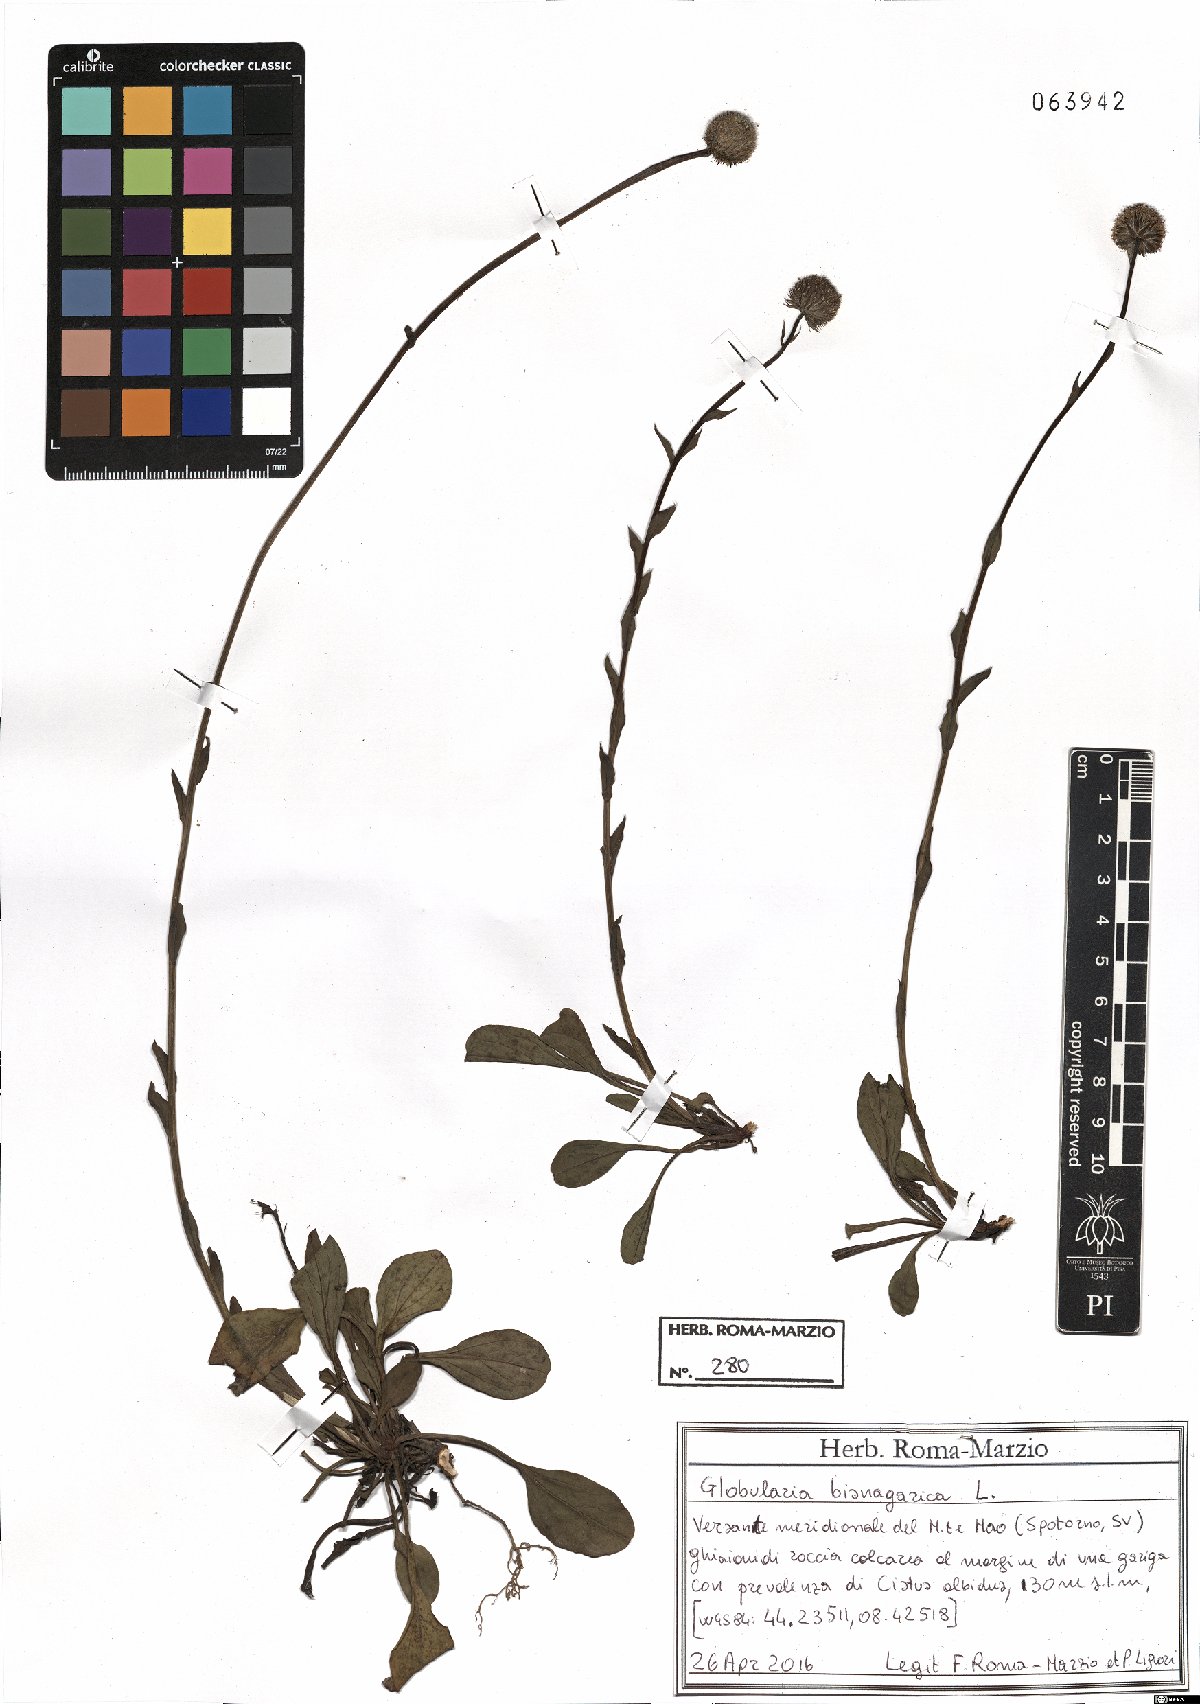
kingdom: Plantae
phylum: Tracheophyta
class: Magnoliopsida
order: Lamiales
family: Plantaginaceae
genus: Globularia
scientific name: Globularia bisnagarica
